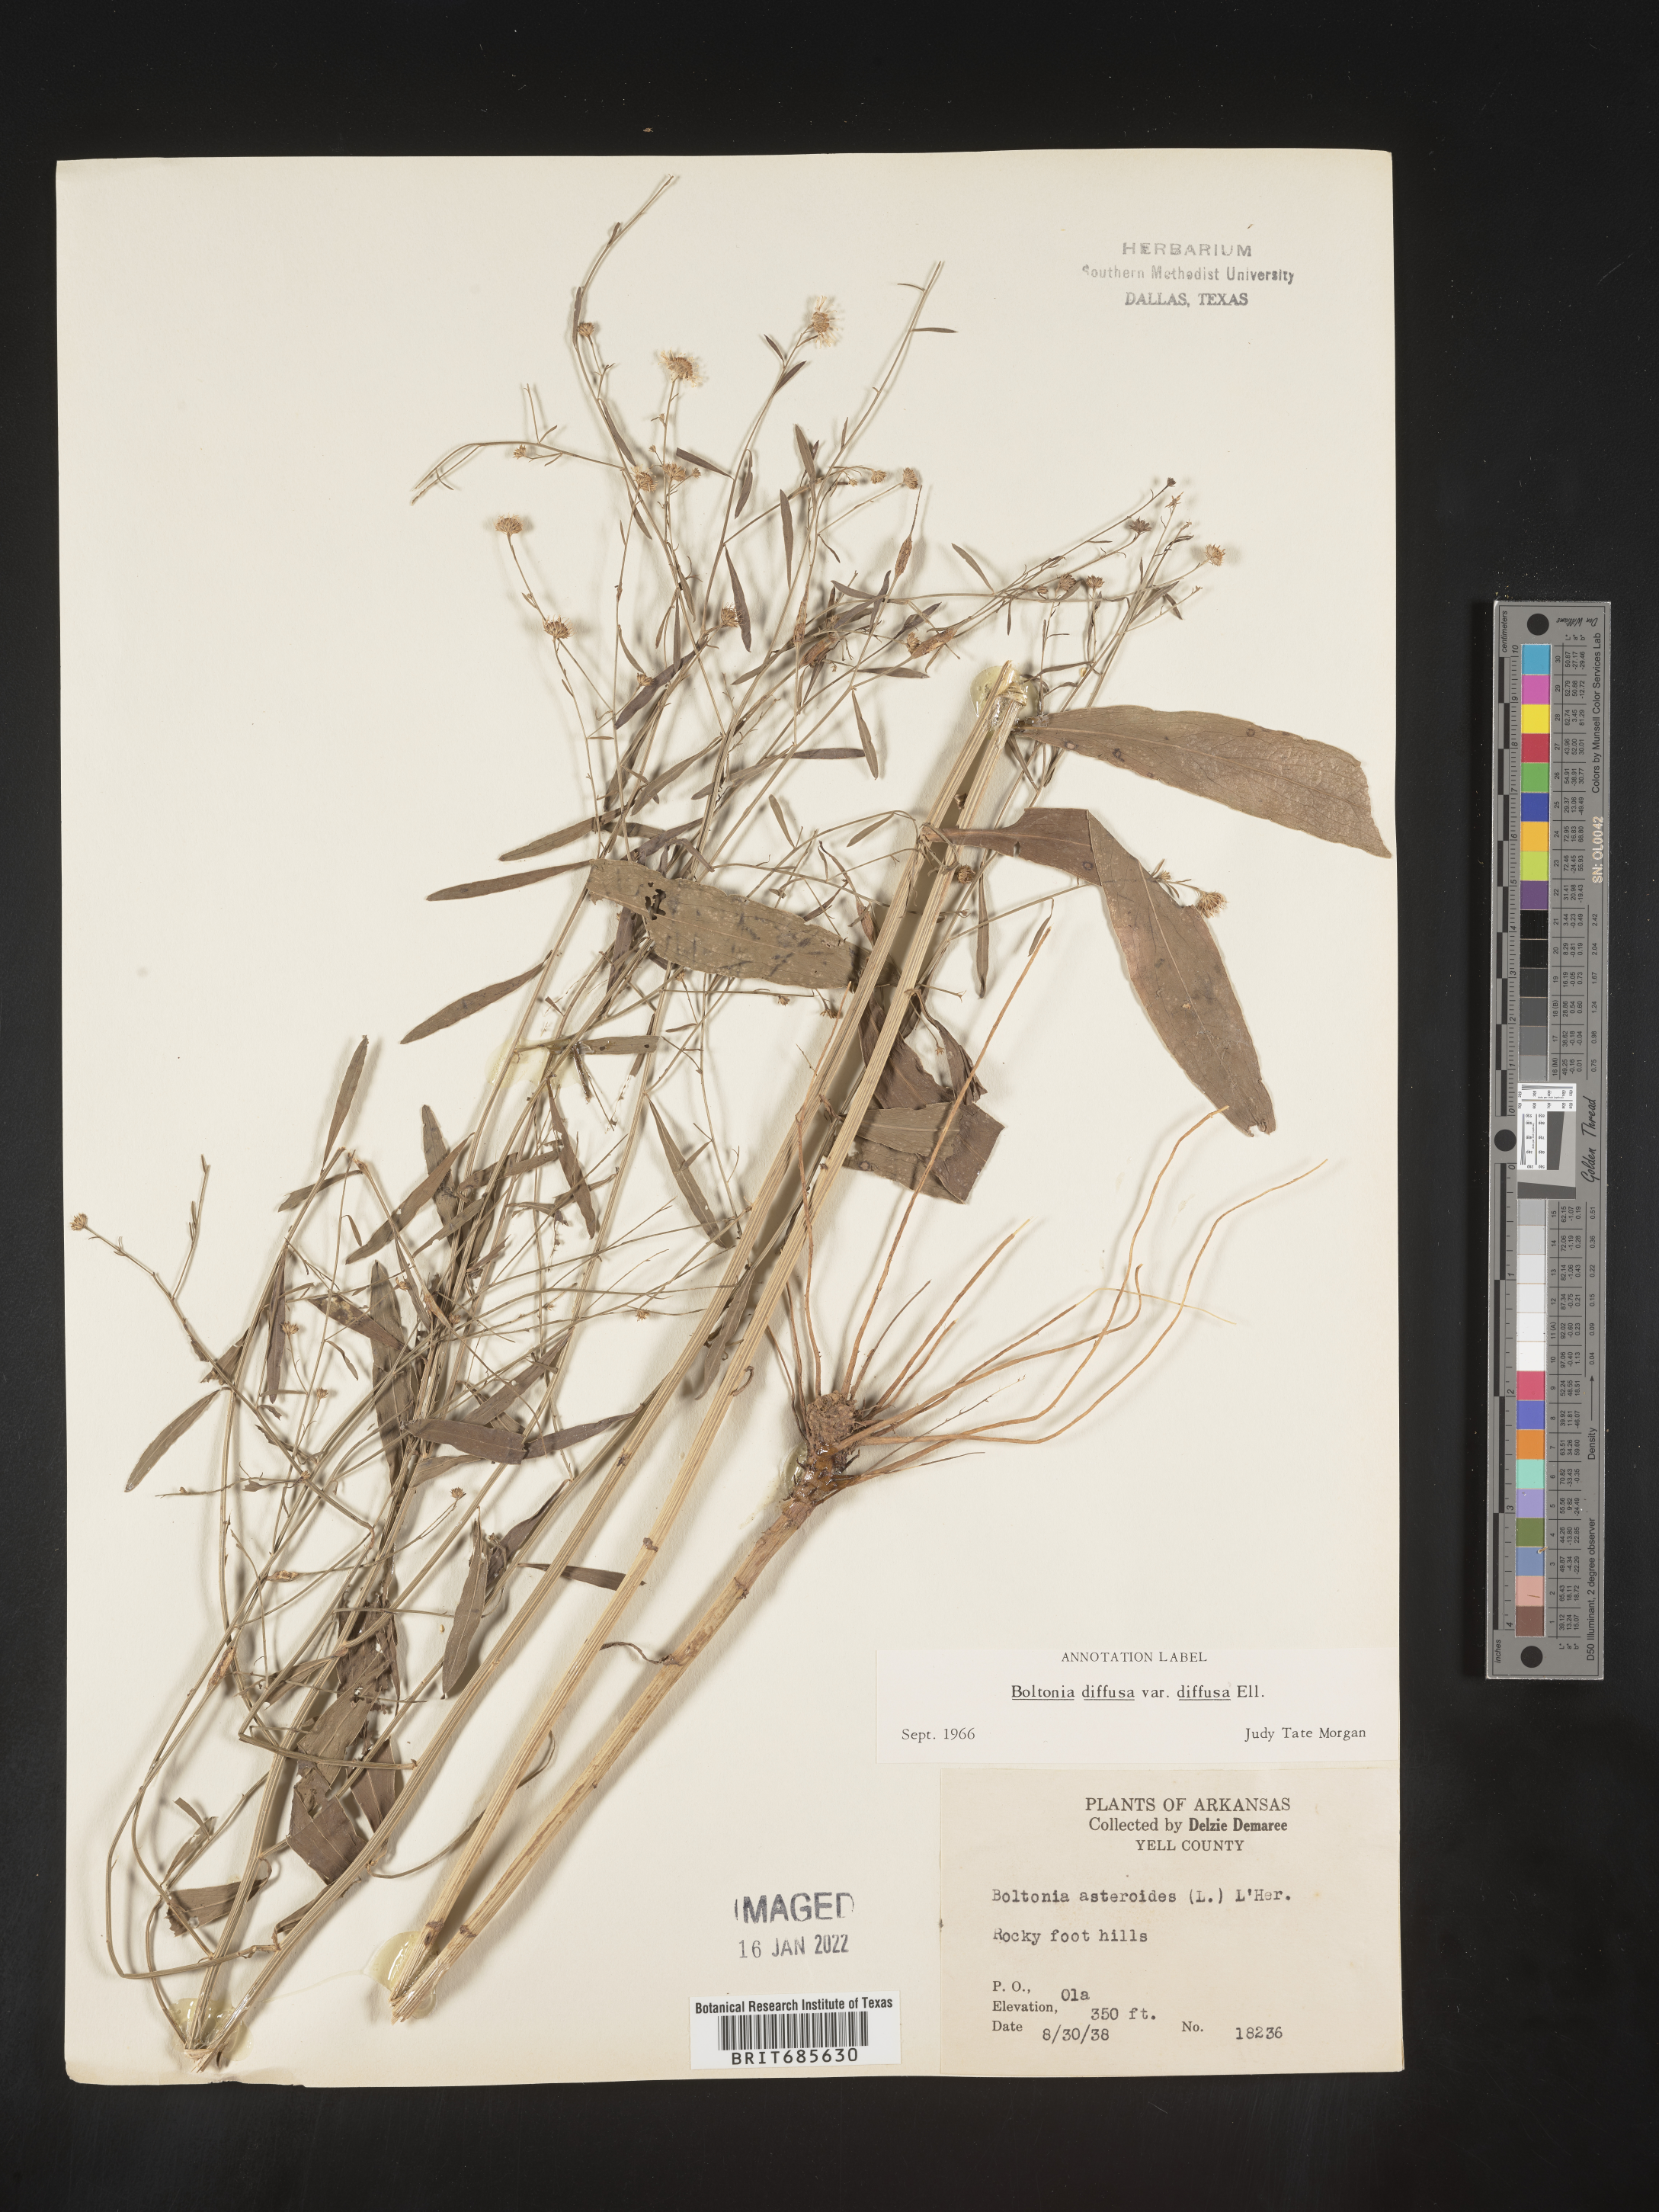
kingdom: Plantae
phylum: Tracheophyta
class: Magnoliopsida
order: Asterales
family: Asteraceae
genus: Boltonia
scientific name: Boltonia diffusa
